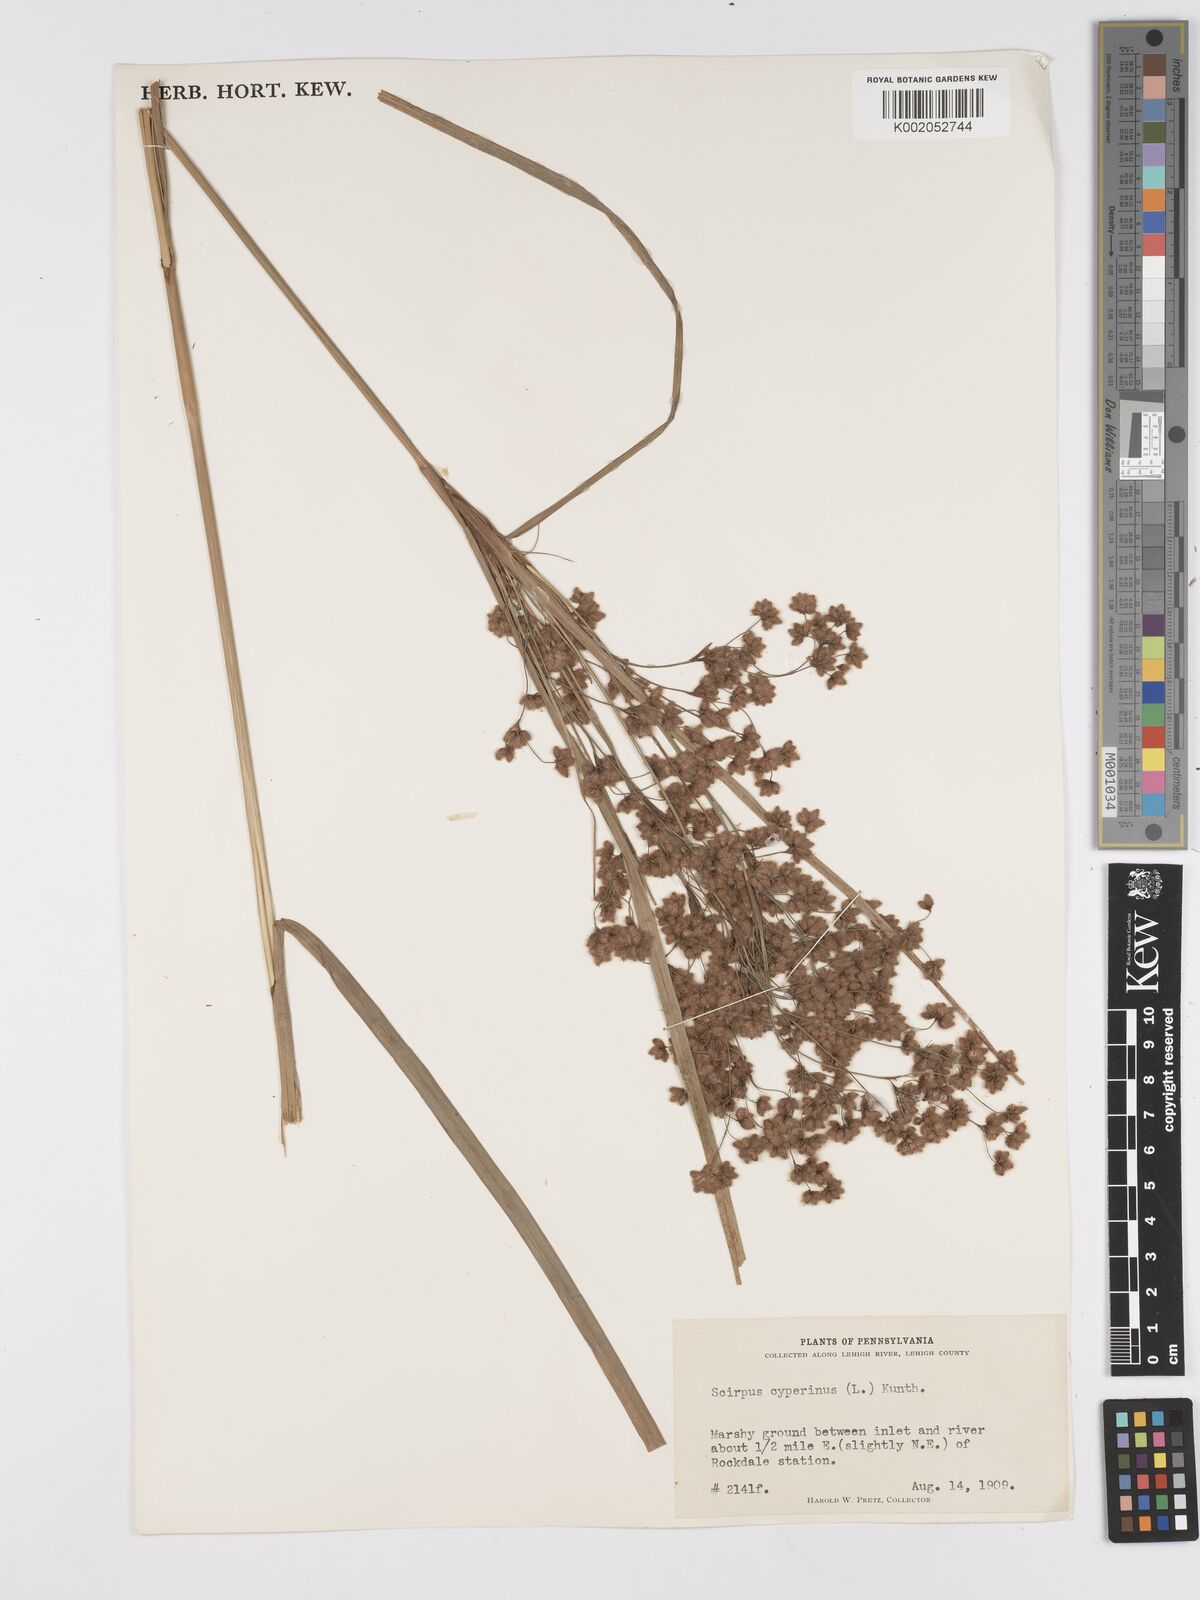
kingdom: Plantae
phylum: Tracheophyta
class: Liliopsida
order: Poales
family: Cyperaceae
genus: Scirpus
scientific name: Scirpus cyperinus
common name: Black-sheathed bulrush
